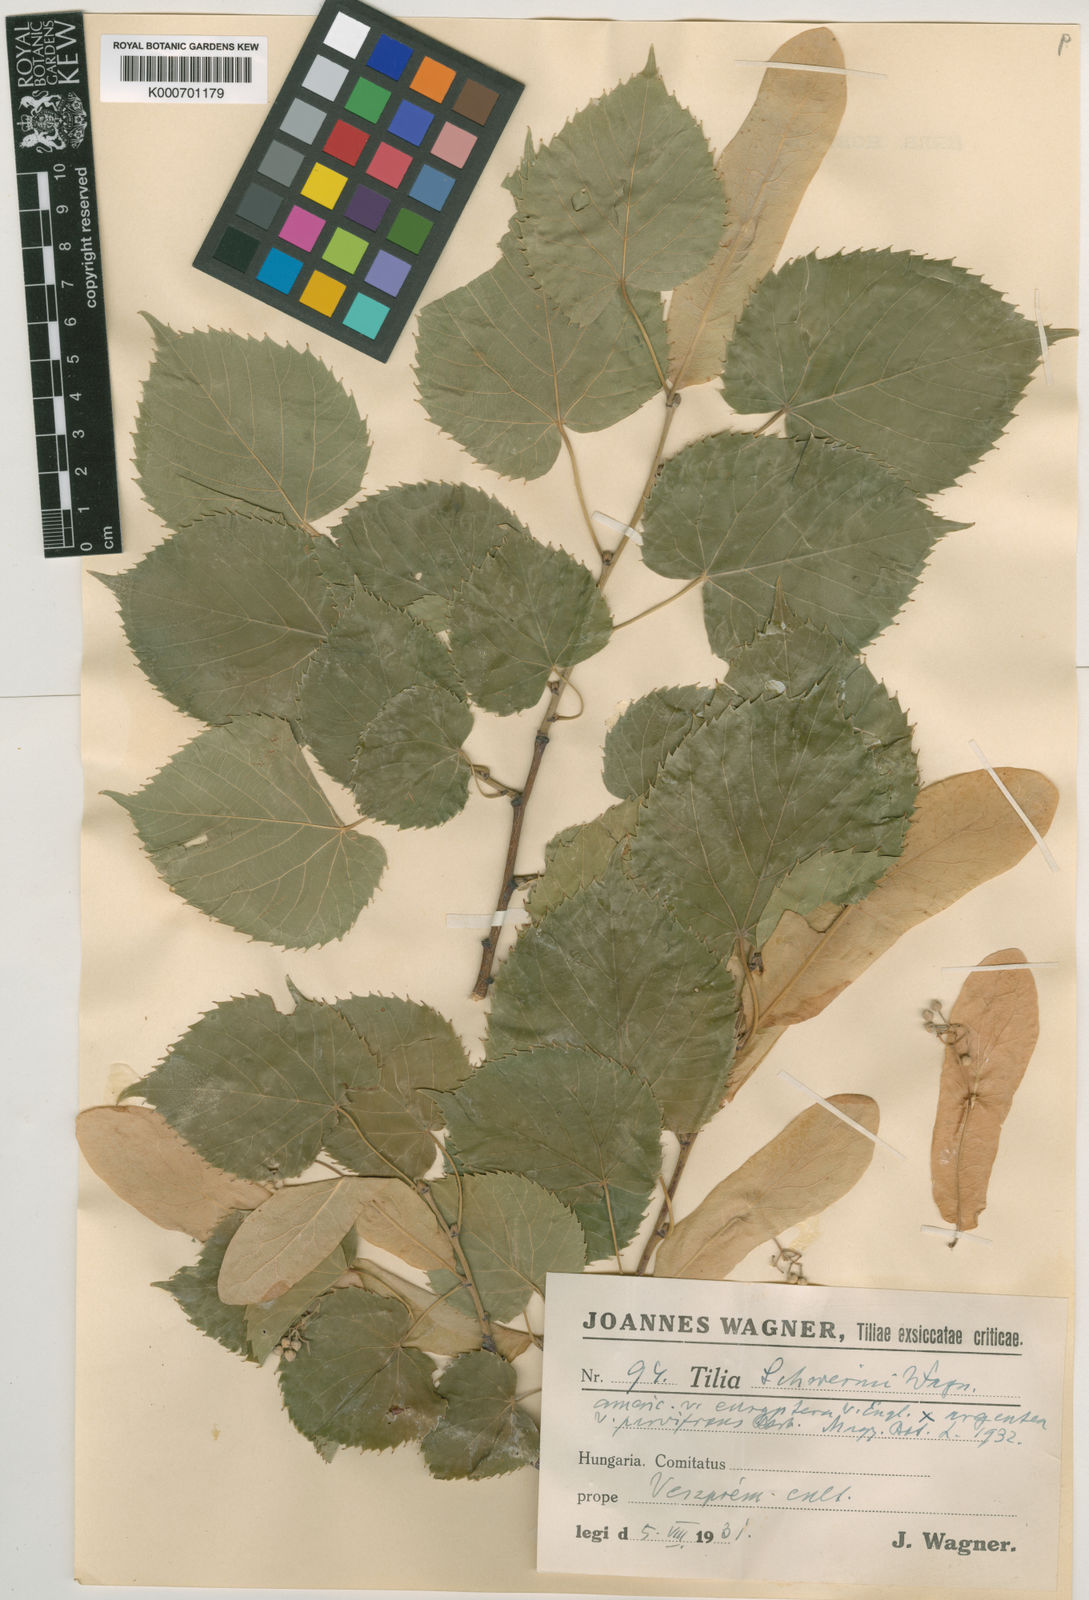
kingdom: Plantae
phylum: Tracheophyta
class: Magnoliopsida
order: Malvales
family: Malvaceae
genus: Tilia
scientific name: Tilia moltkei
